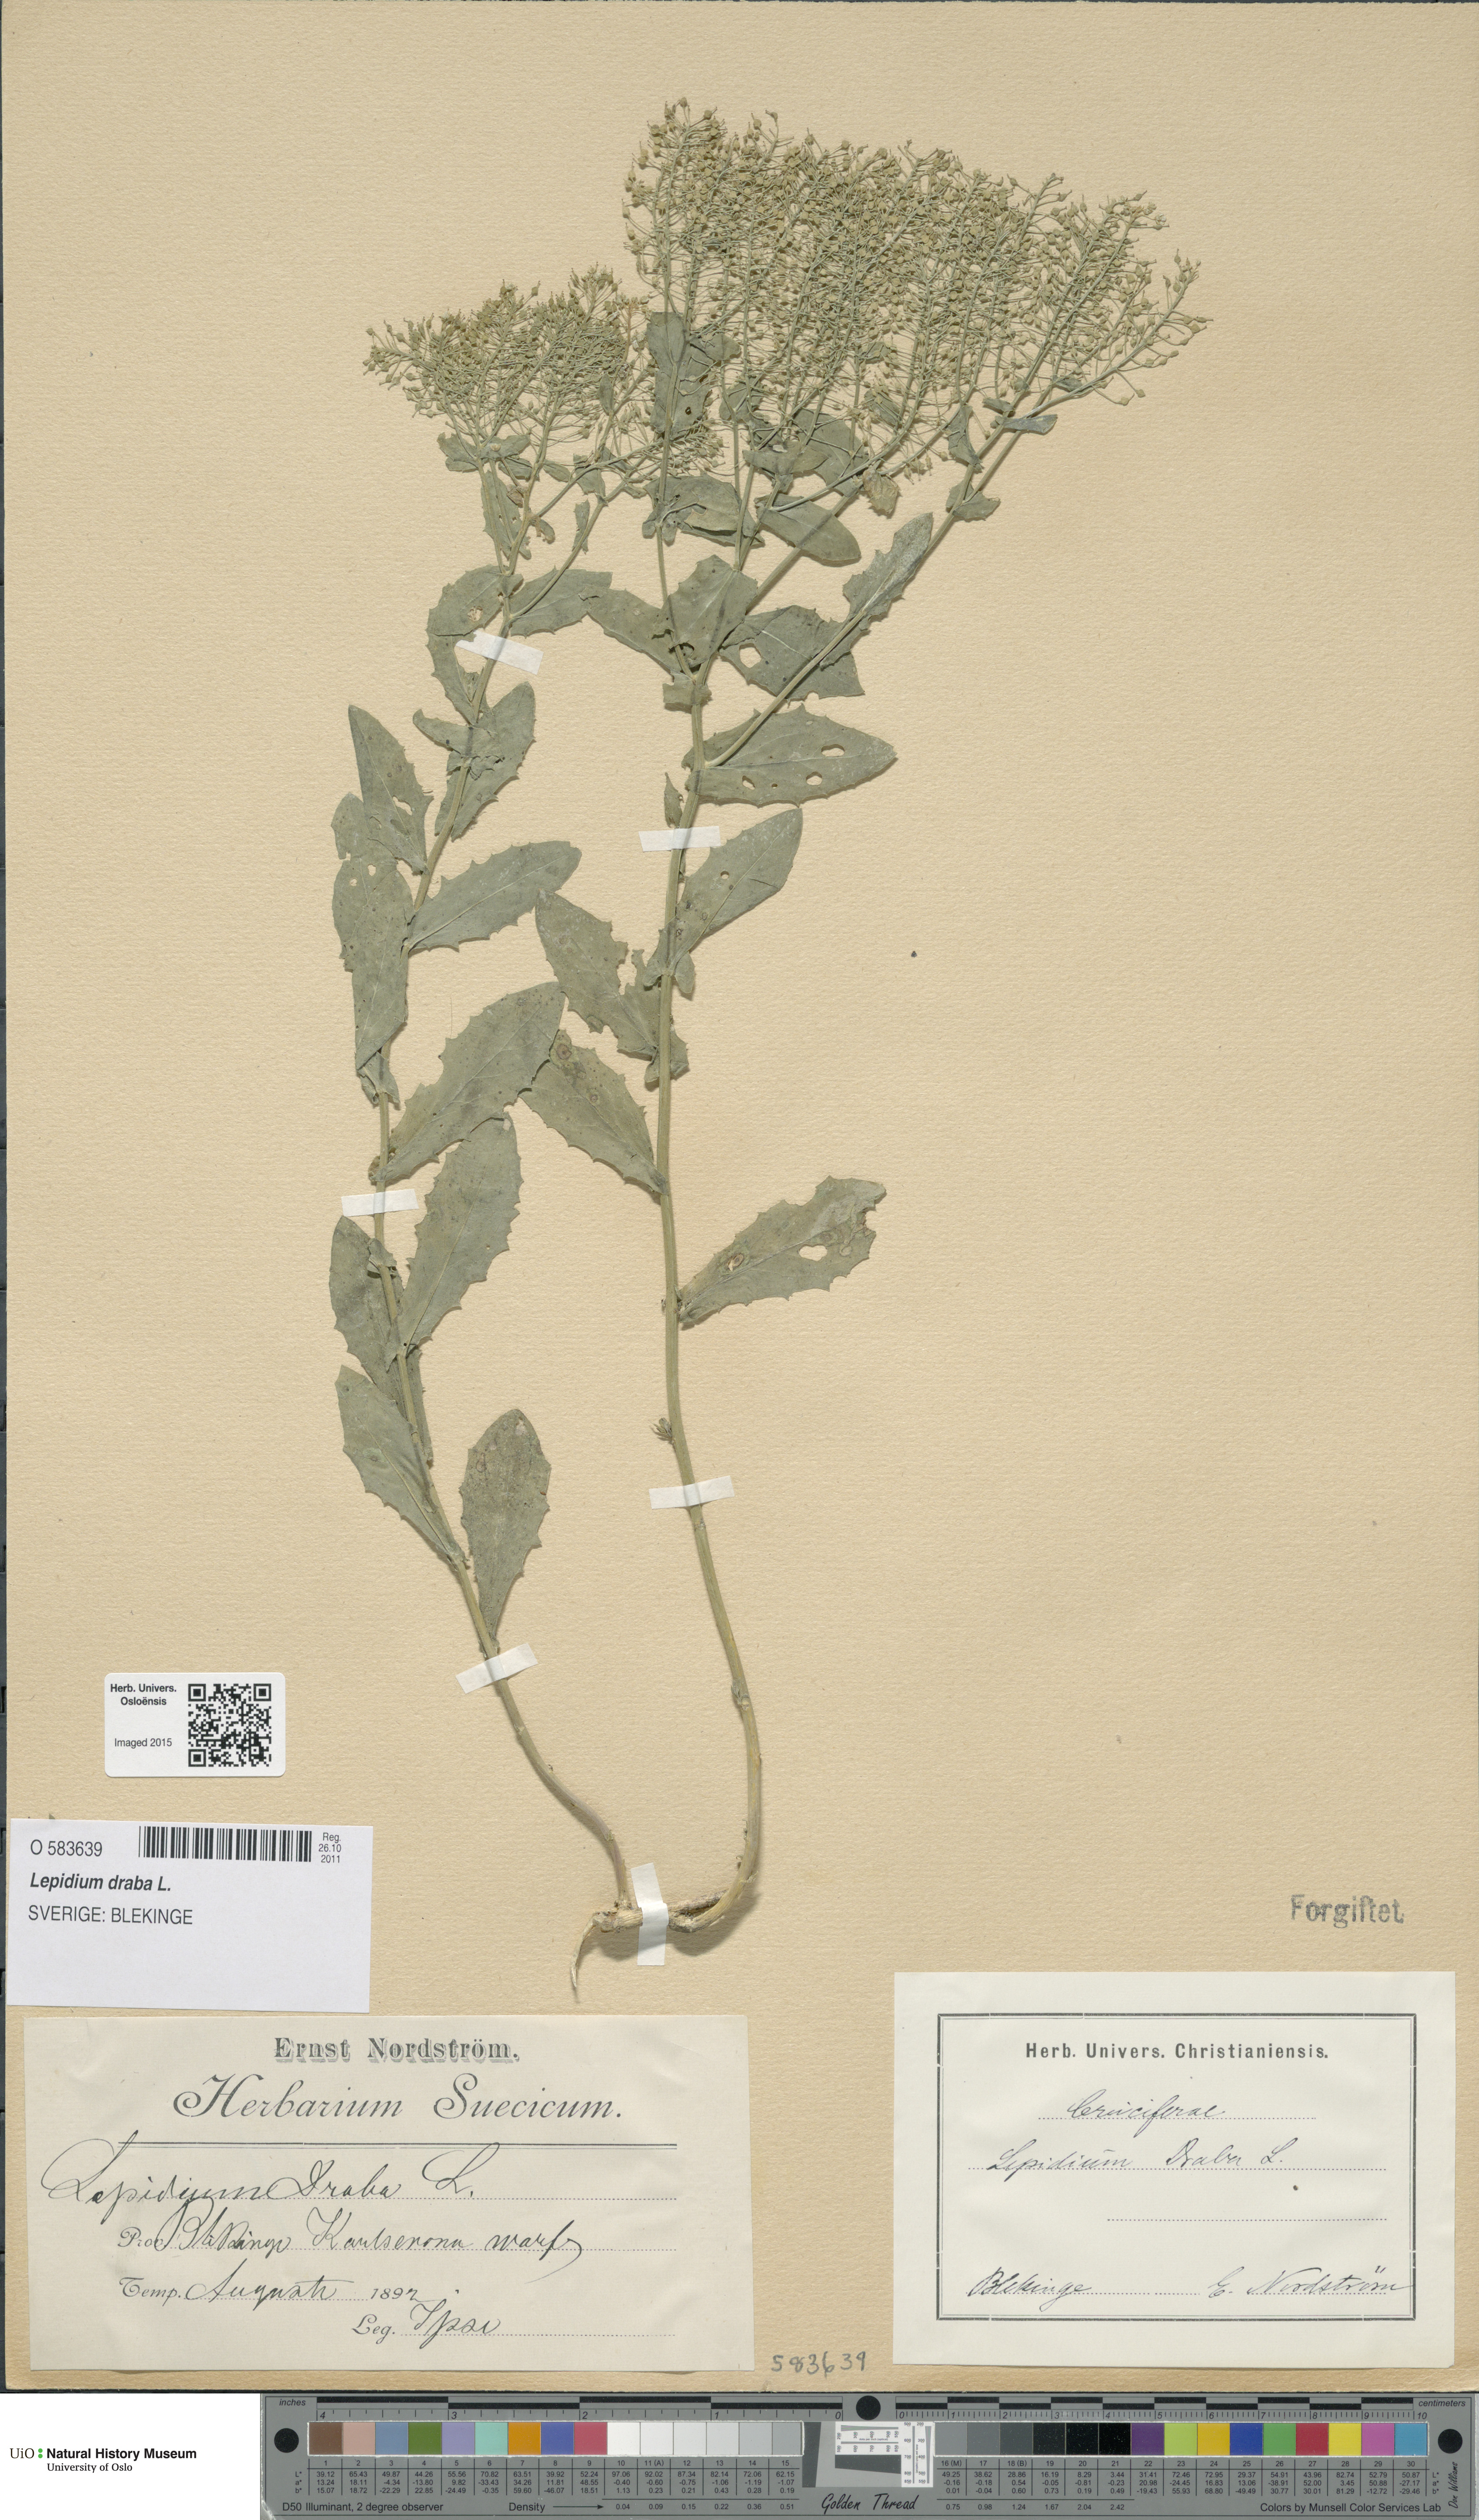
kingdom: Plantae
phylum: Tracheophyta
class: Magnoliopsida
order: Brassicales
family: Brassicaceae
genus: Lepidium
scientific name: Lepidium draba
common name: Hoary cress
